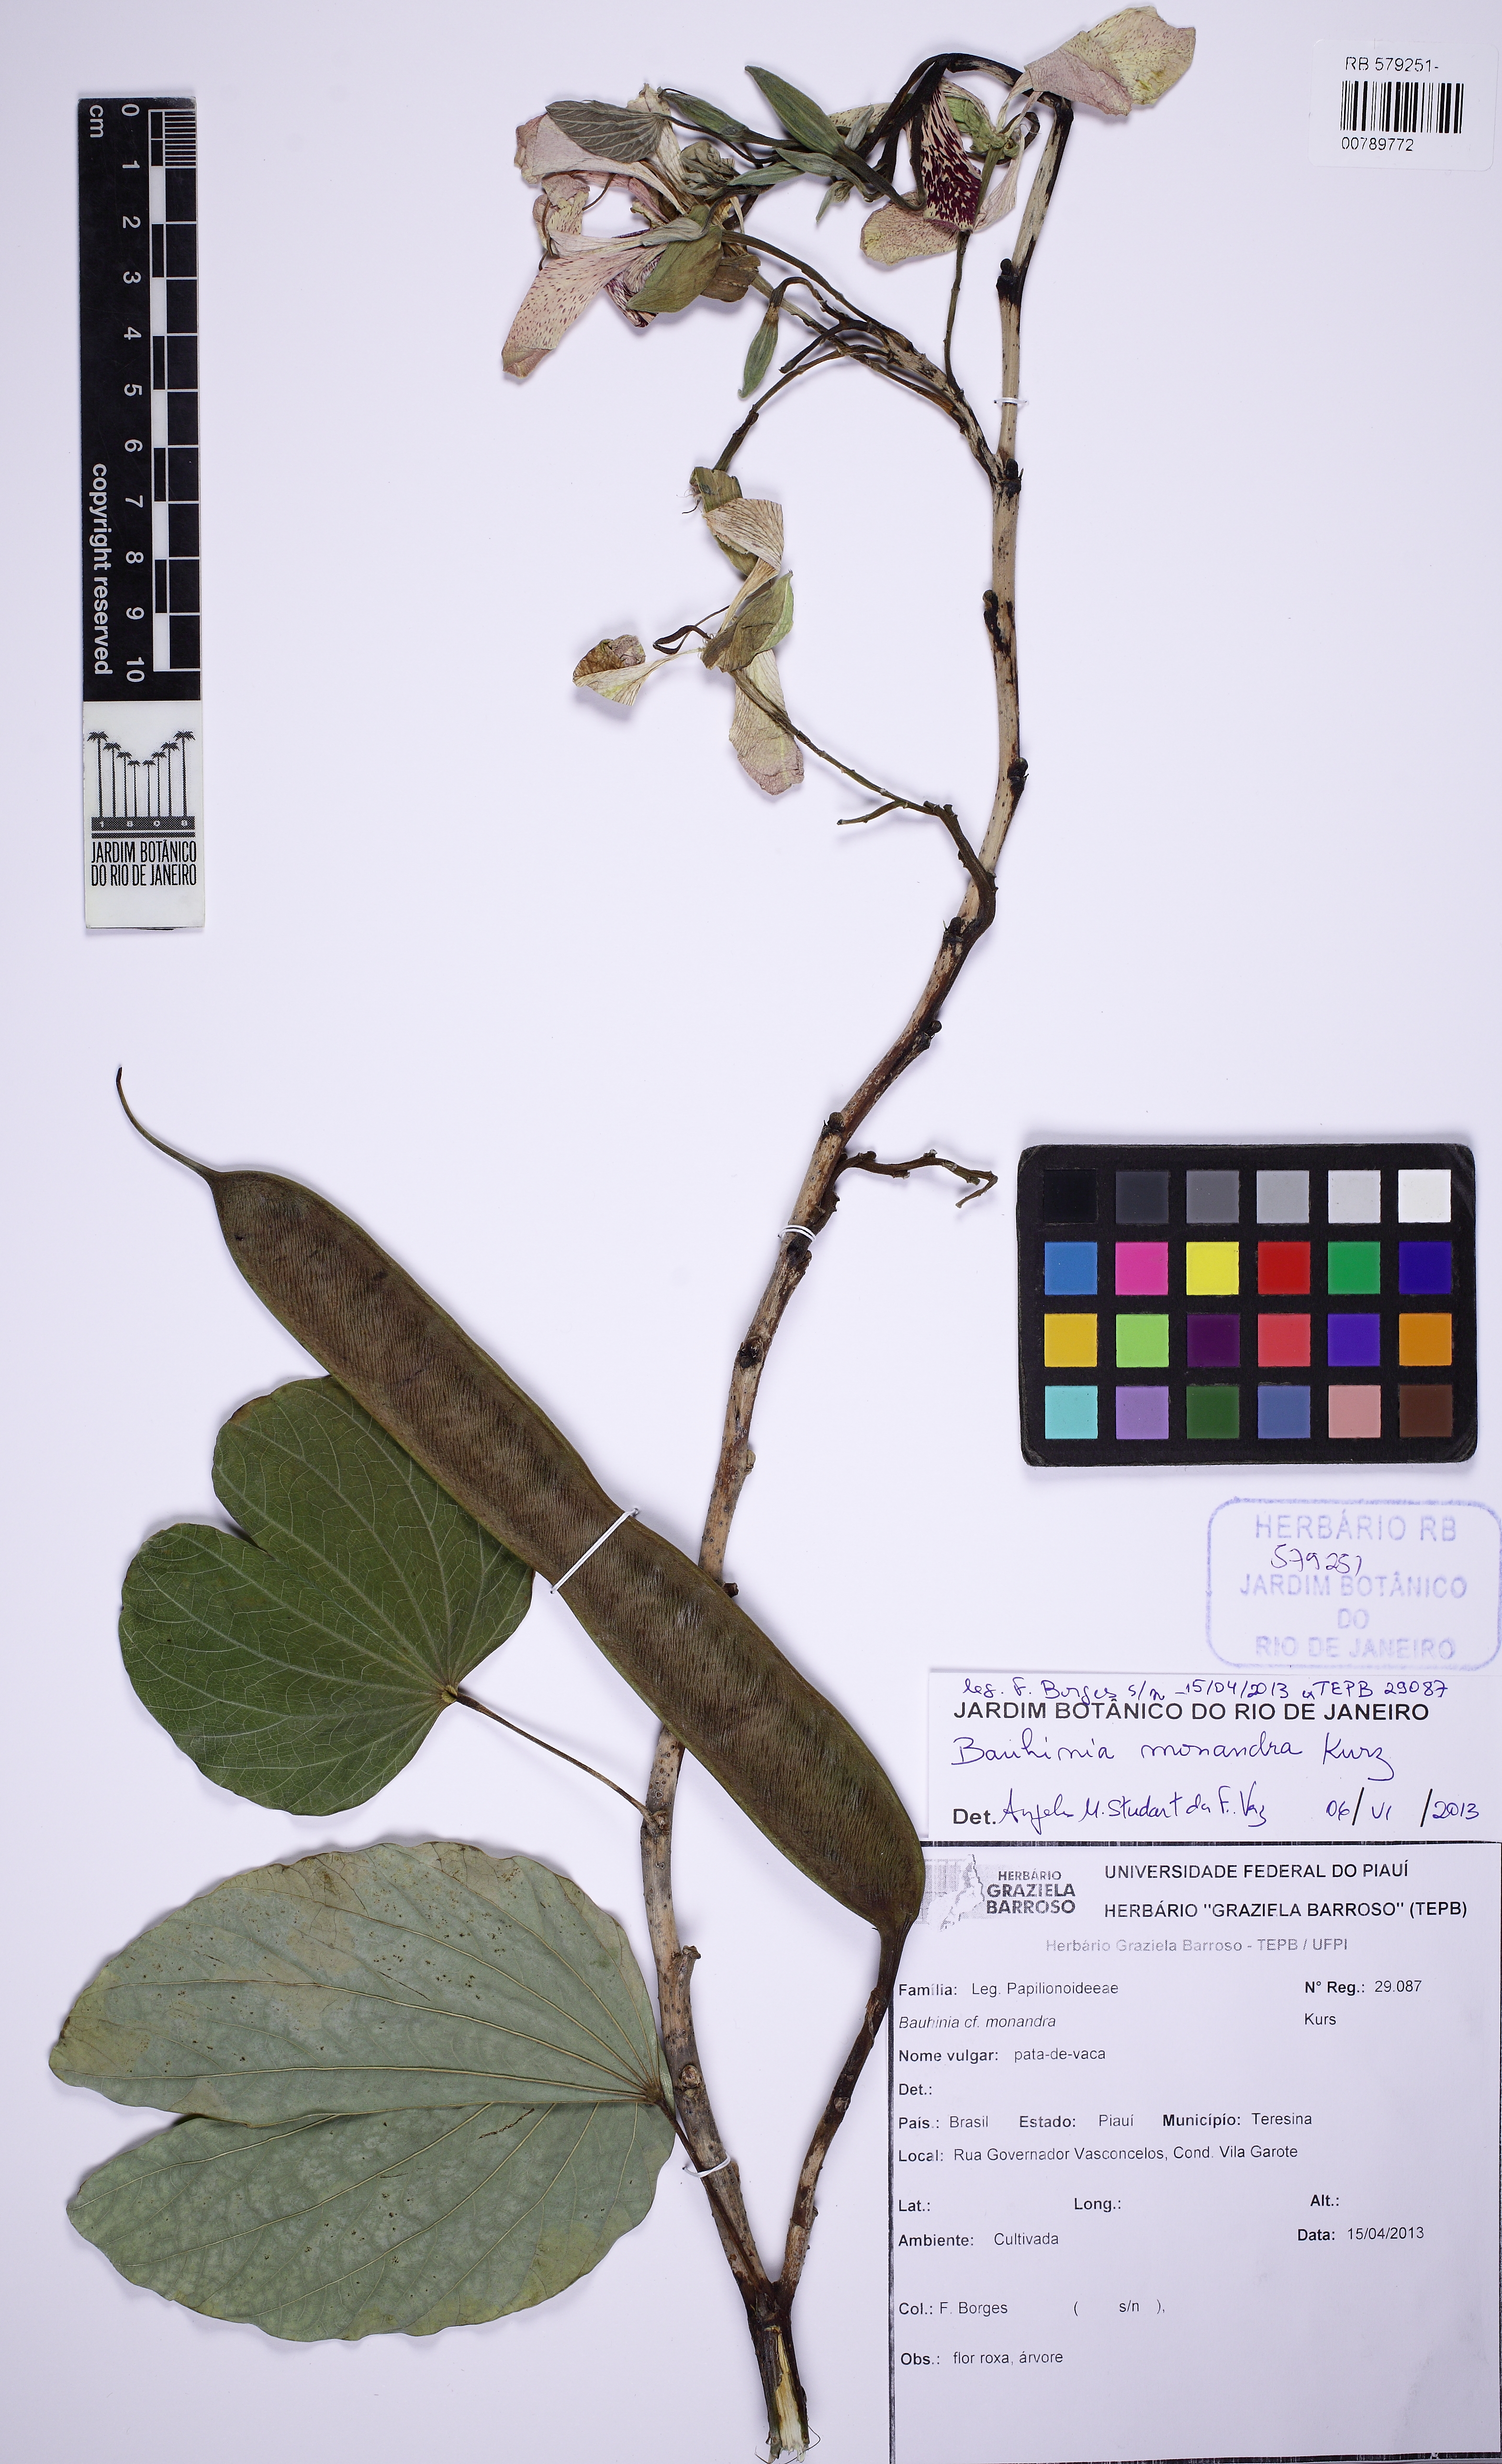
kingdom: Plantae
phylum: Tracheophyta
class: Magnoliopsida
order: Fabales
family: Fabaceae
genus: Bauhinia
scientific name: Bauhinia monandra
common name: Napoleon's plume
